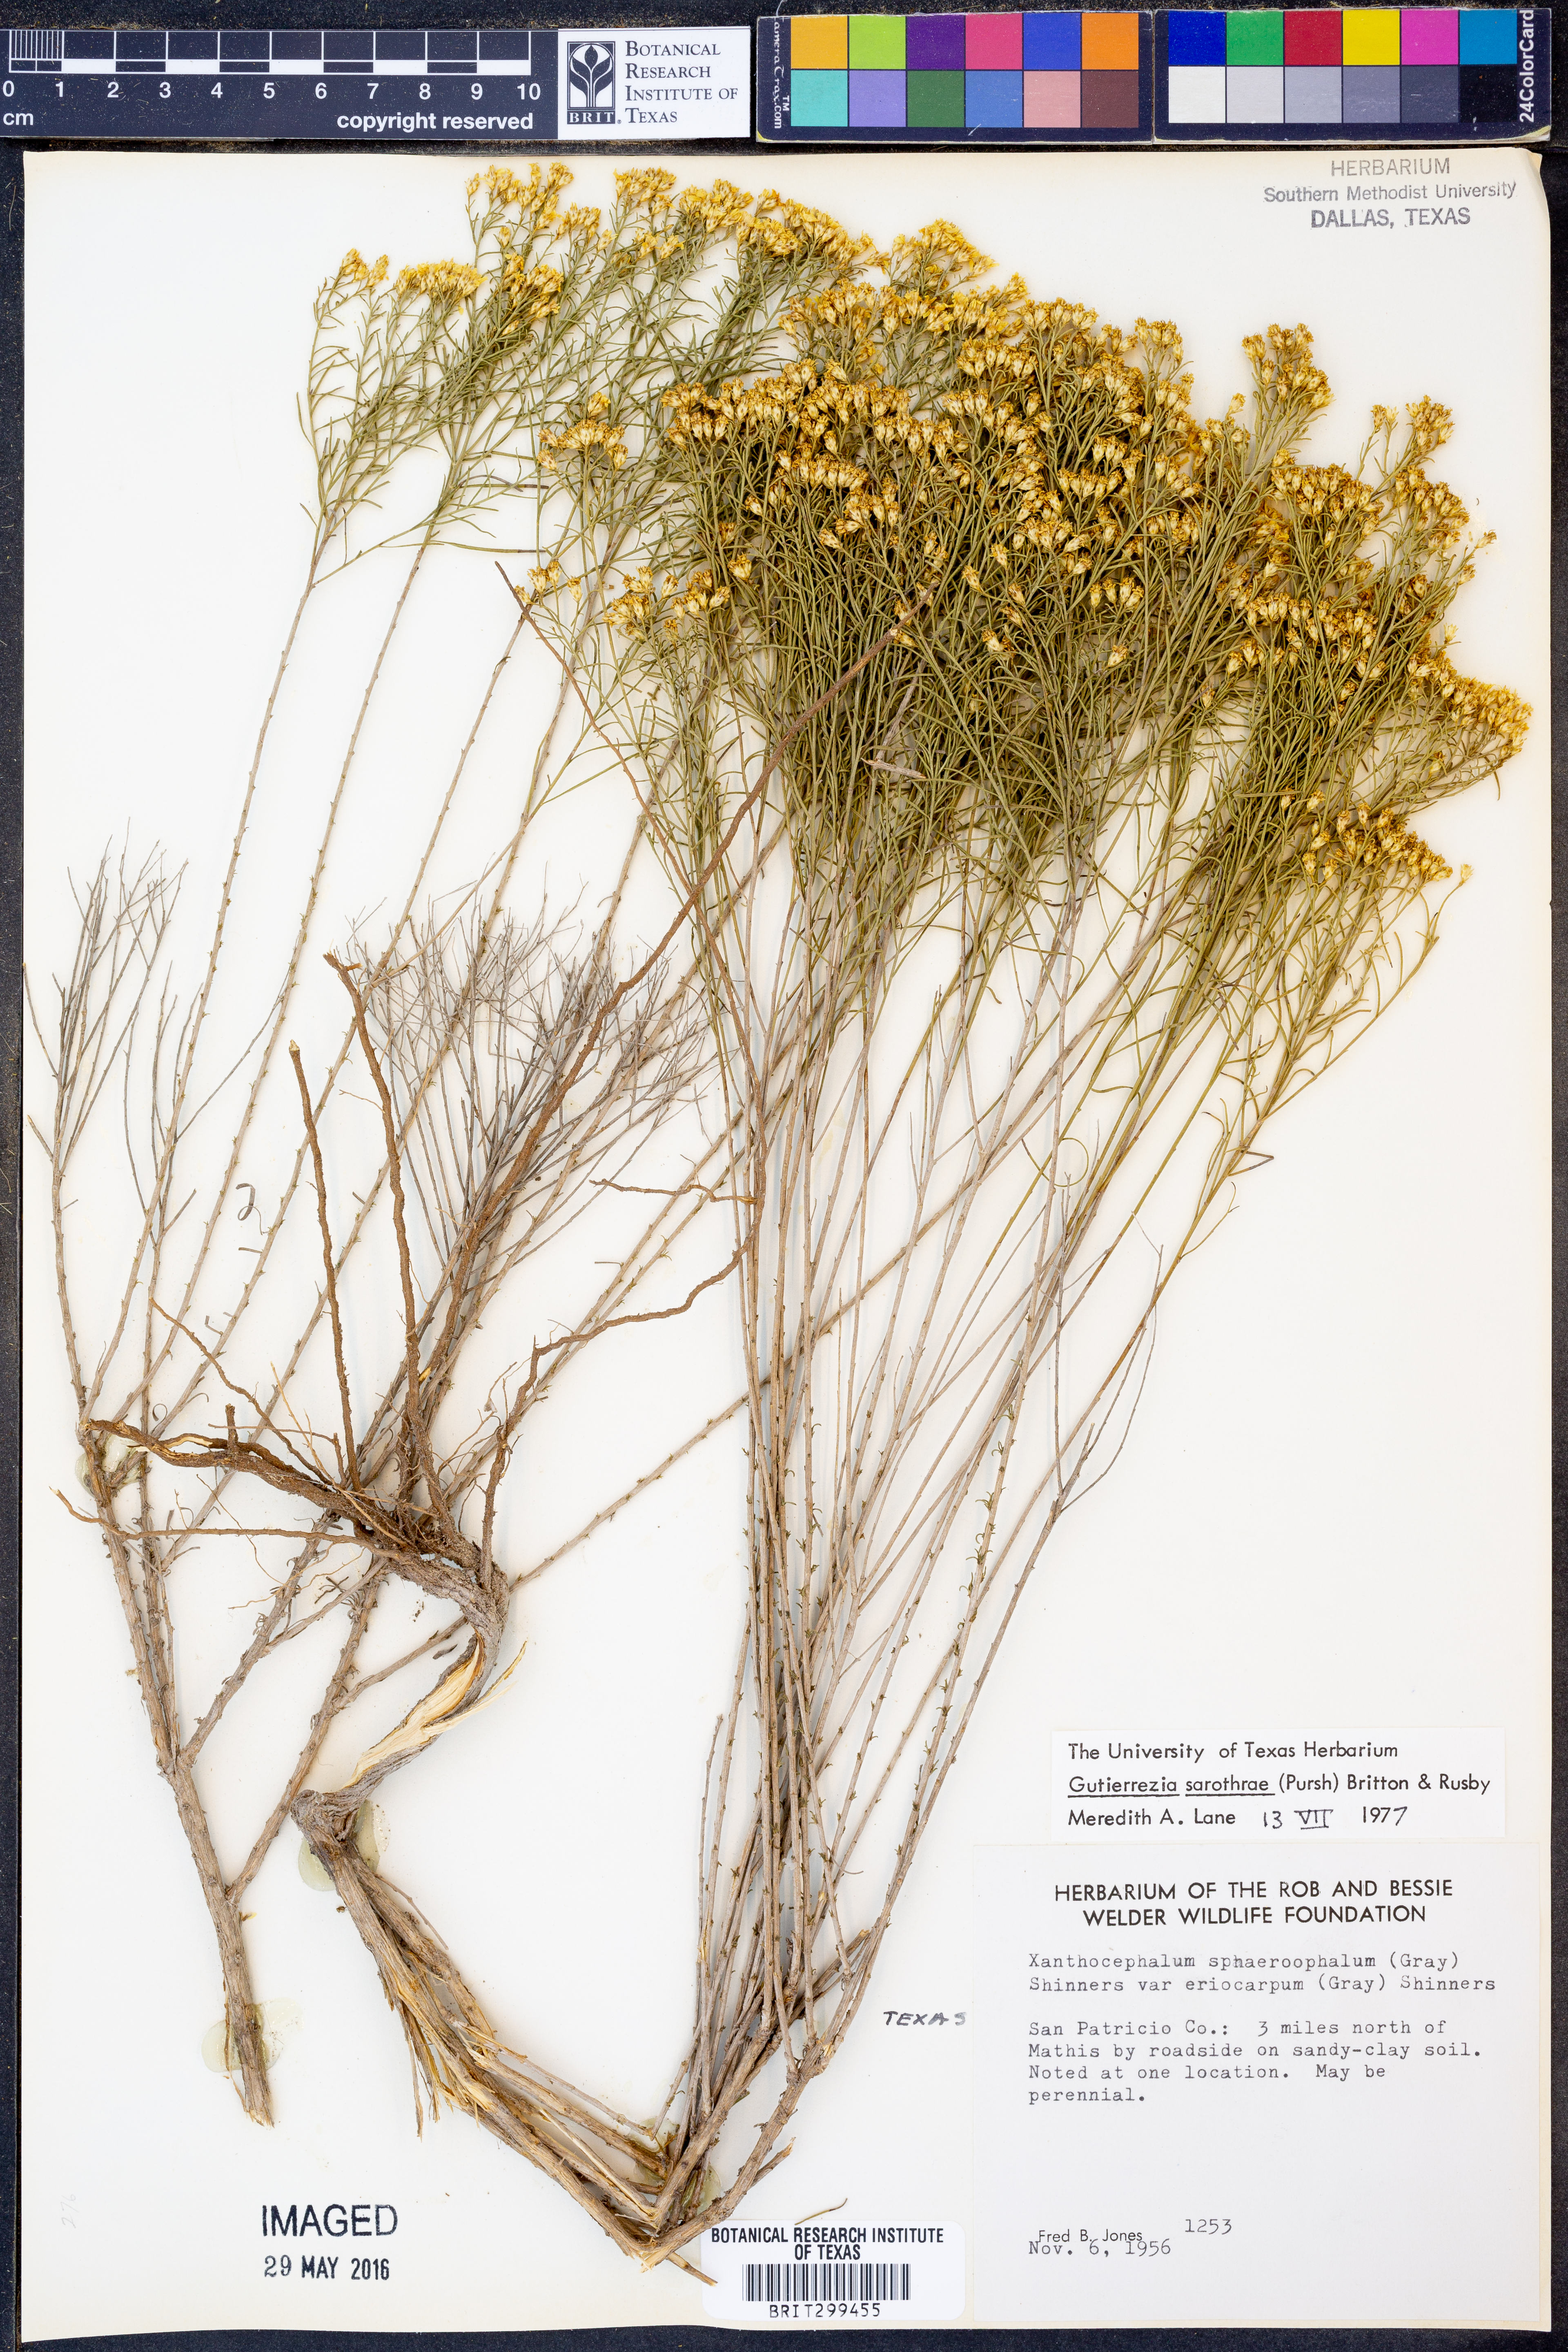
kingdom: Plantae
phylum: Tracheophyta
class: Magnoliopsida
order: Asterales
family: Asteraceae
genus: Gutierrezia
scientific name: Gutierrezia sarothrae
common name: Broom snakeweed
